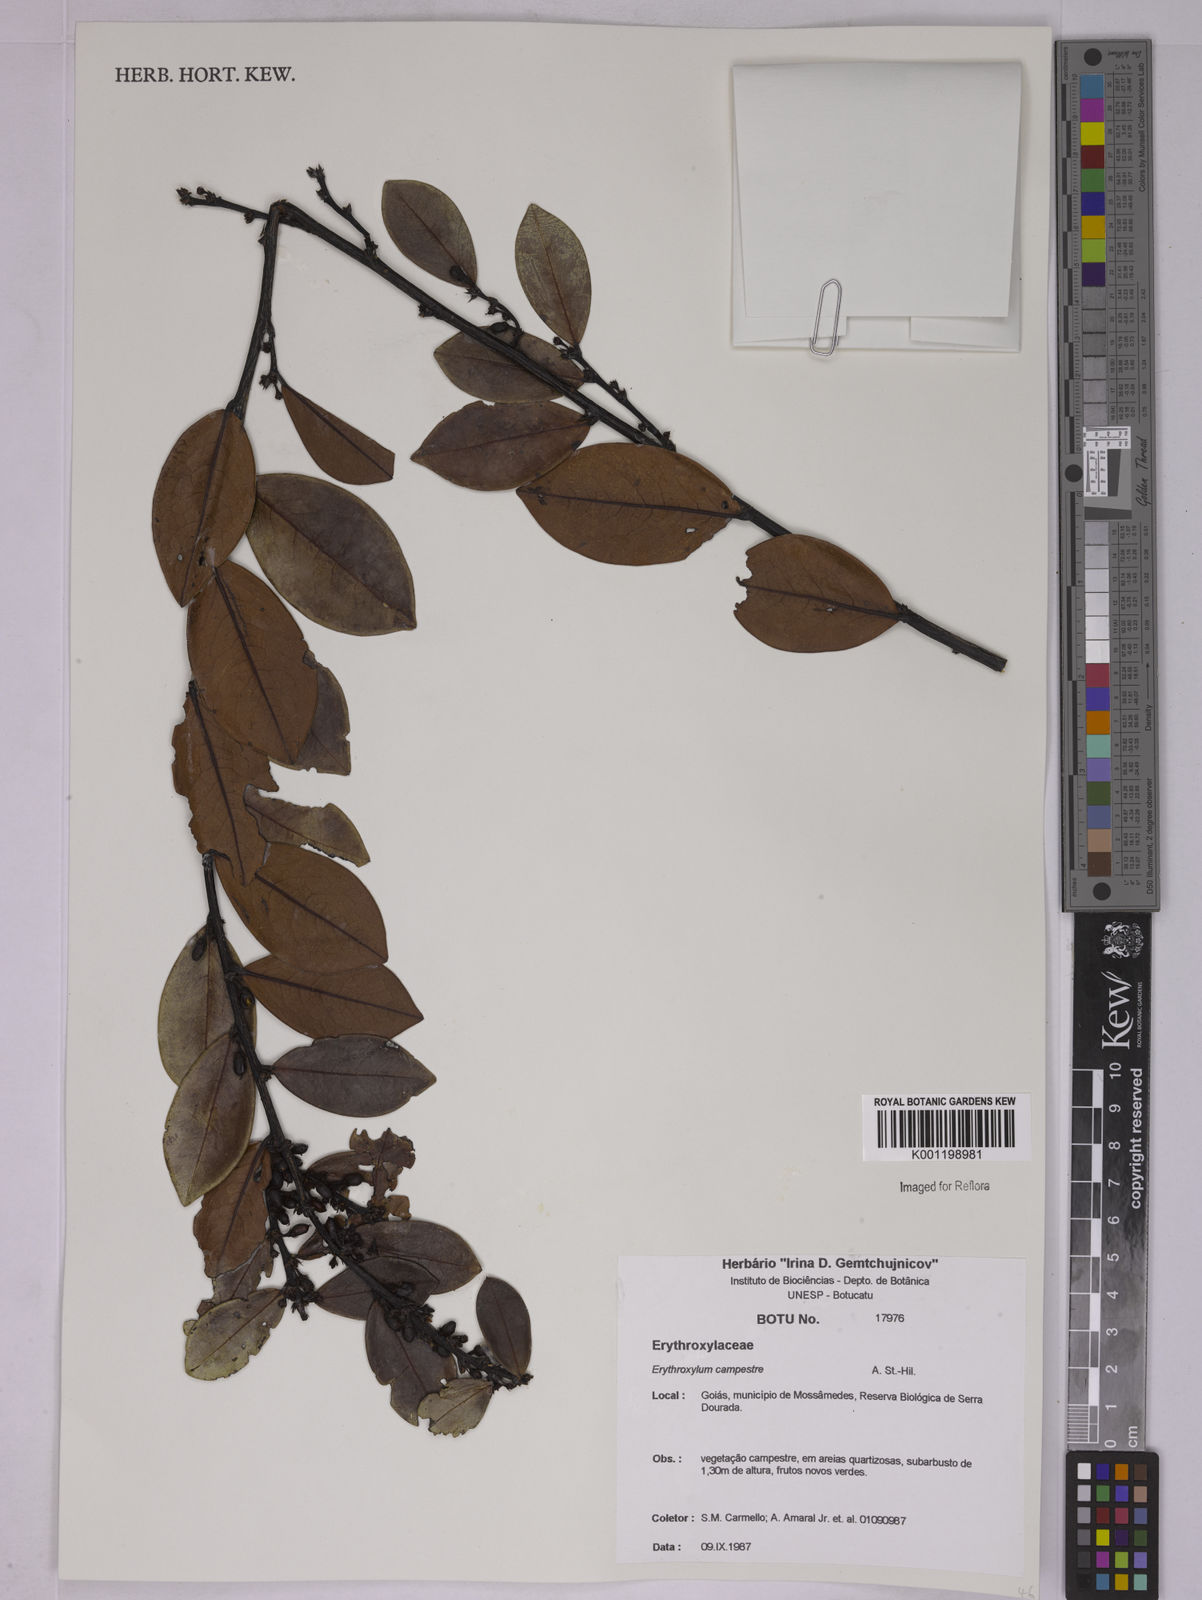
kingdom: Plantae
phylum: Tracheophyta
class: Magnoliopsida
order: Malpighiales
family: Erythroxylaceae
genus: Erythroxylum
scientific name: Erythroxylum campestre
